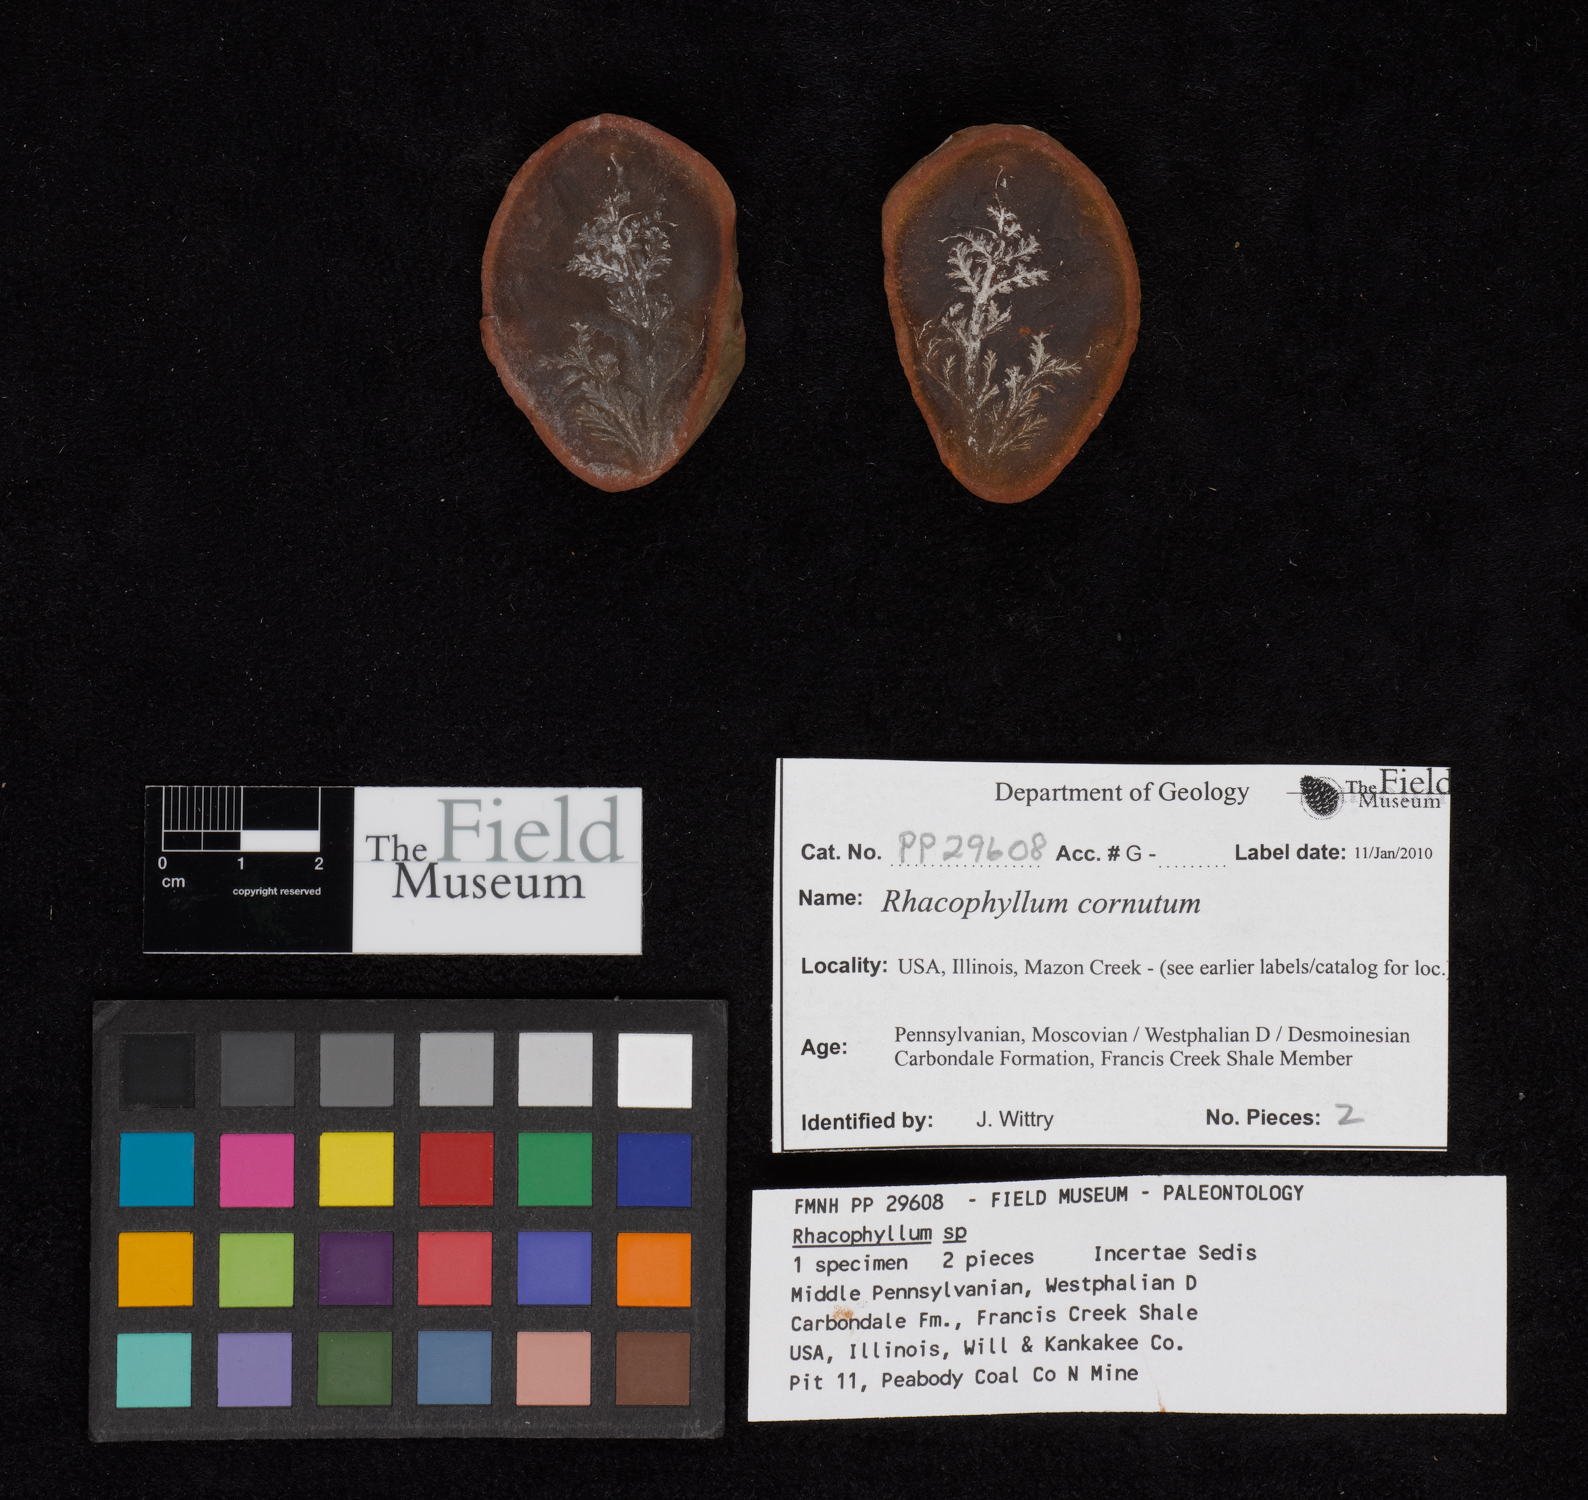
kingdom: Plantae
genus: Rhacophyllum
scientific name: Rhacophyllum
